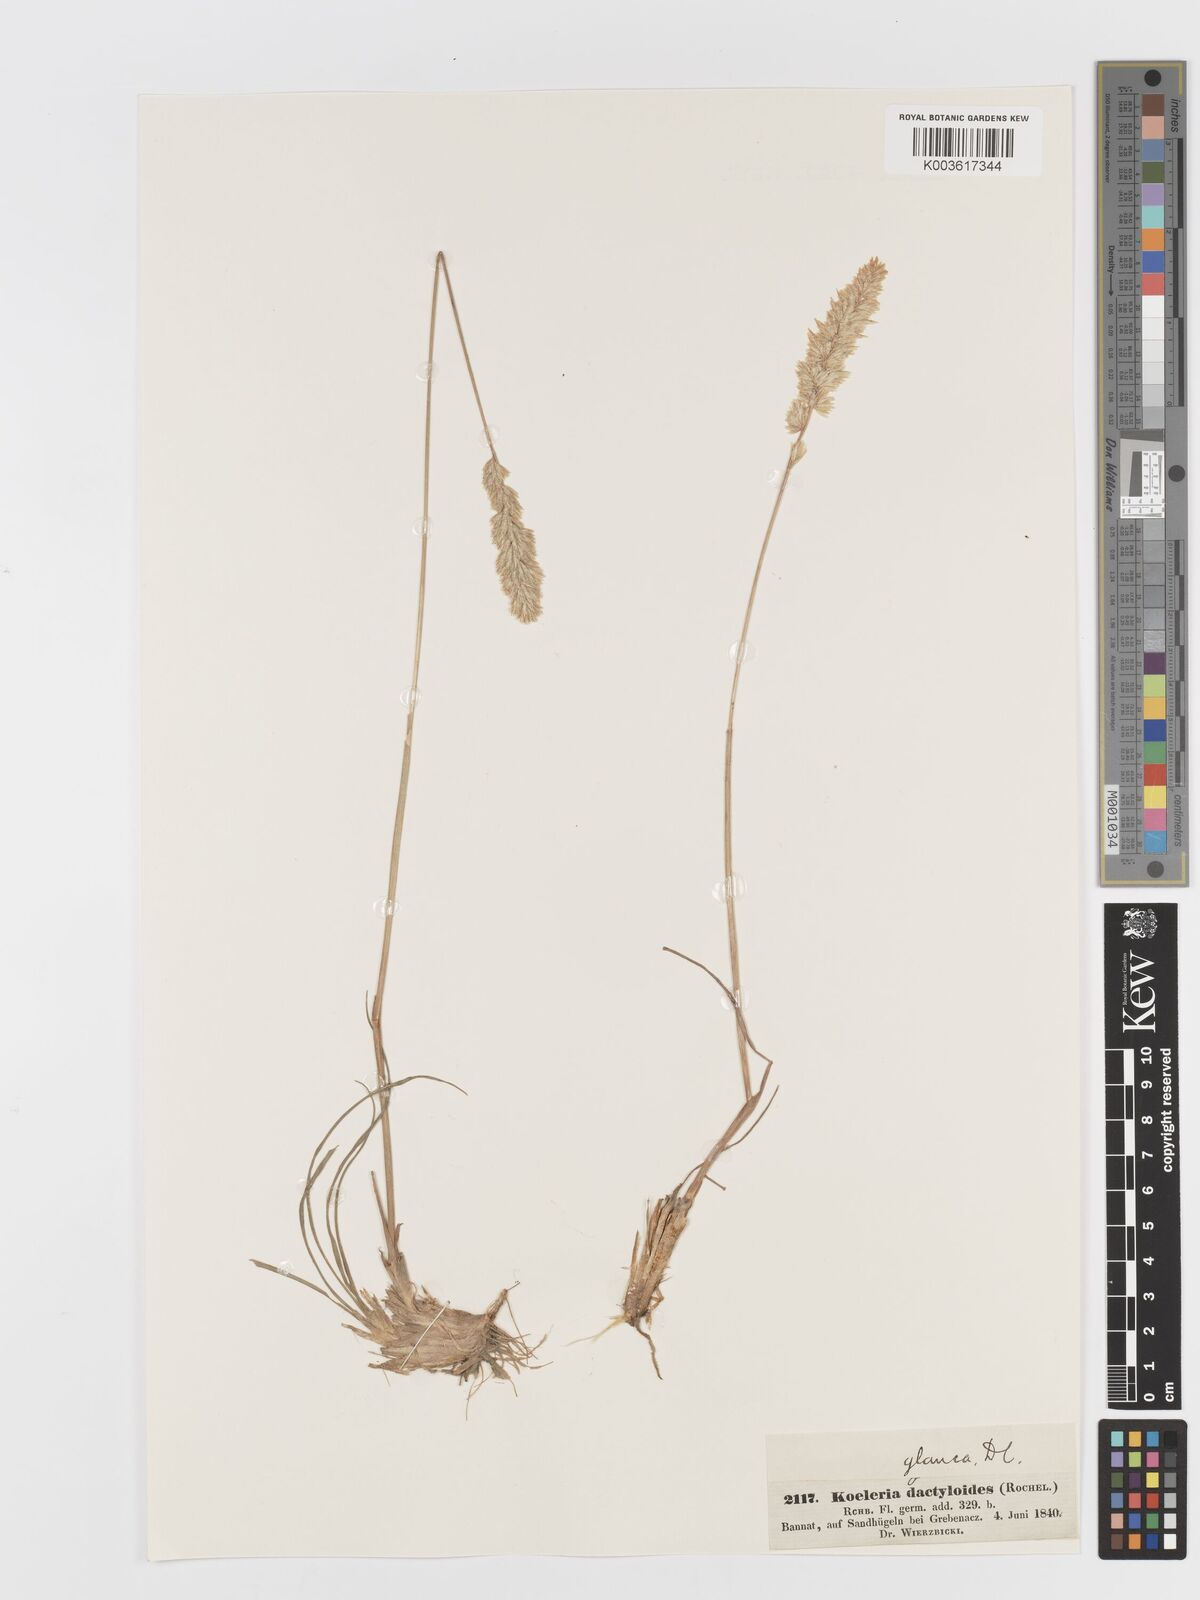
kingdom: Plantae
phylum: Tracheophyta
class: Liliopsida
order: Poales
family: Poaceae
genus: Koeleria
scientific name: Koeleria glauca
